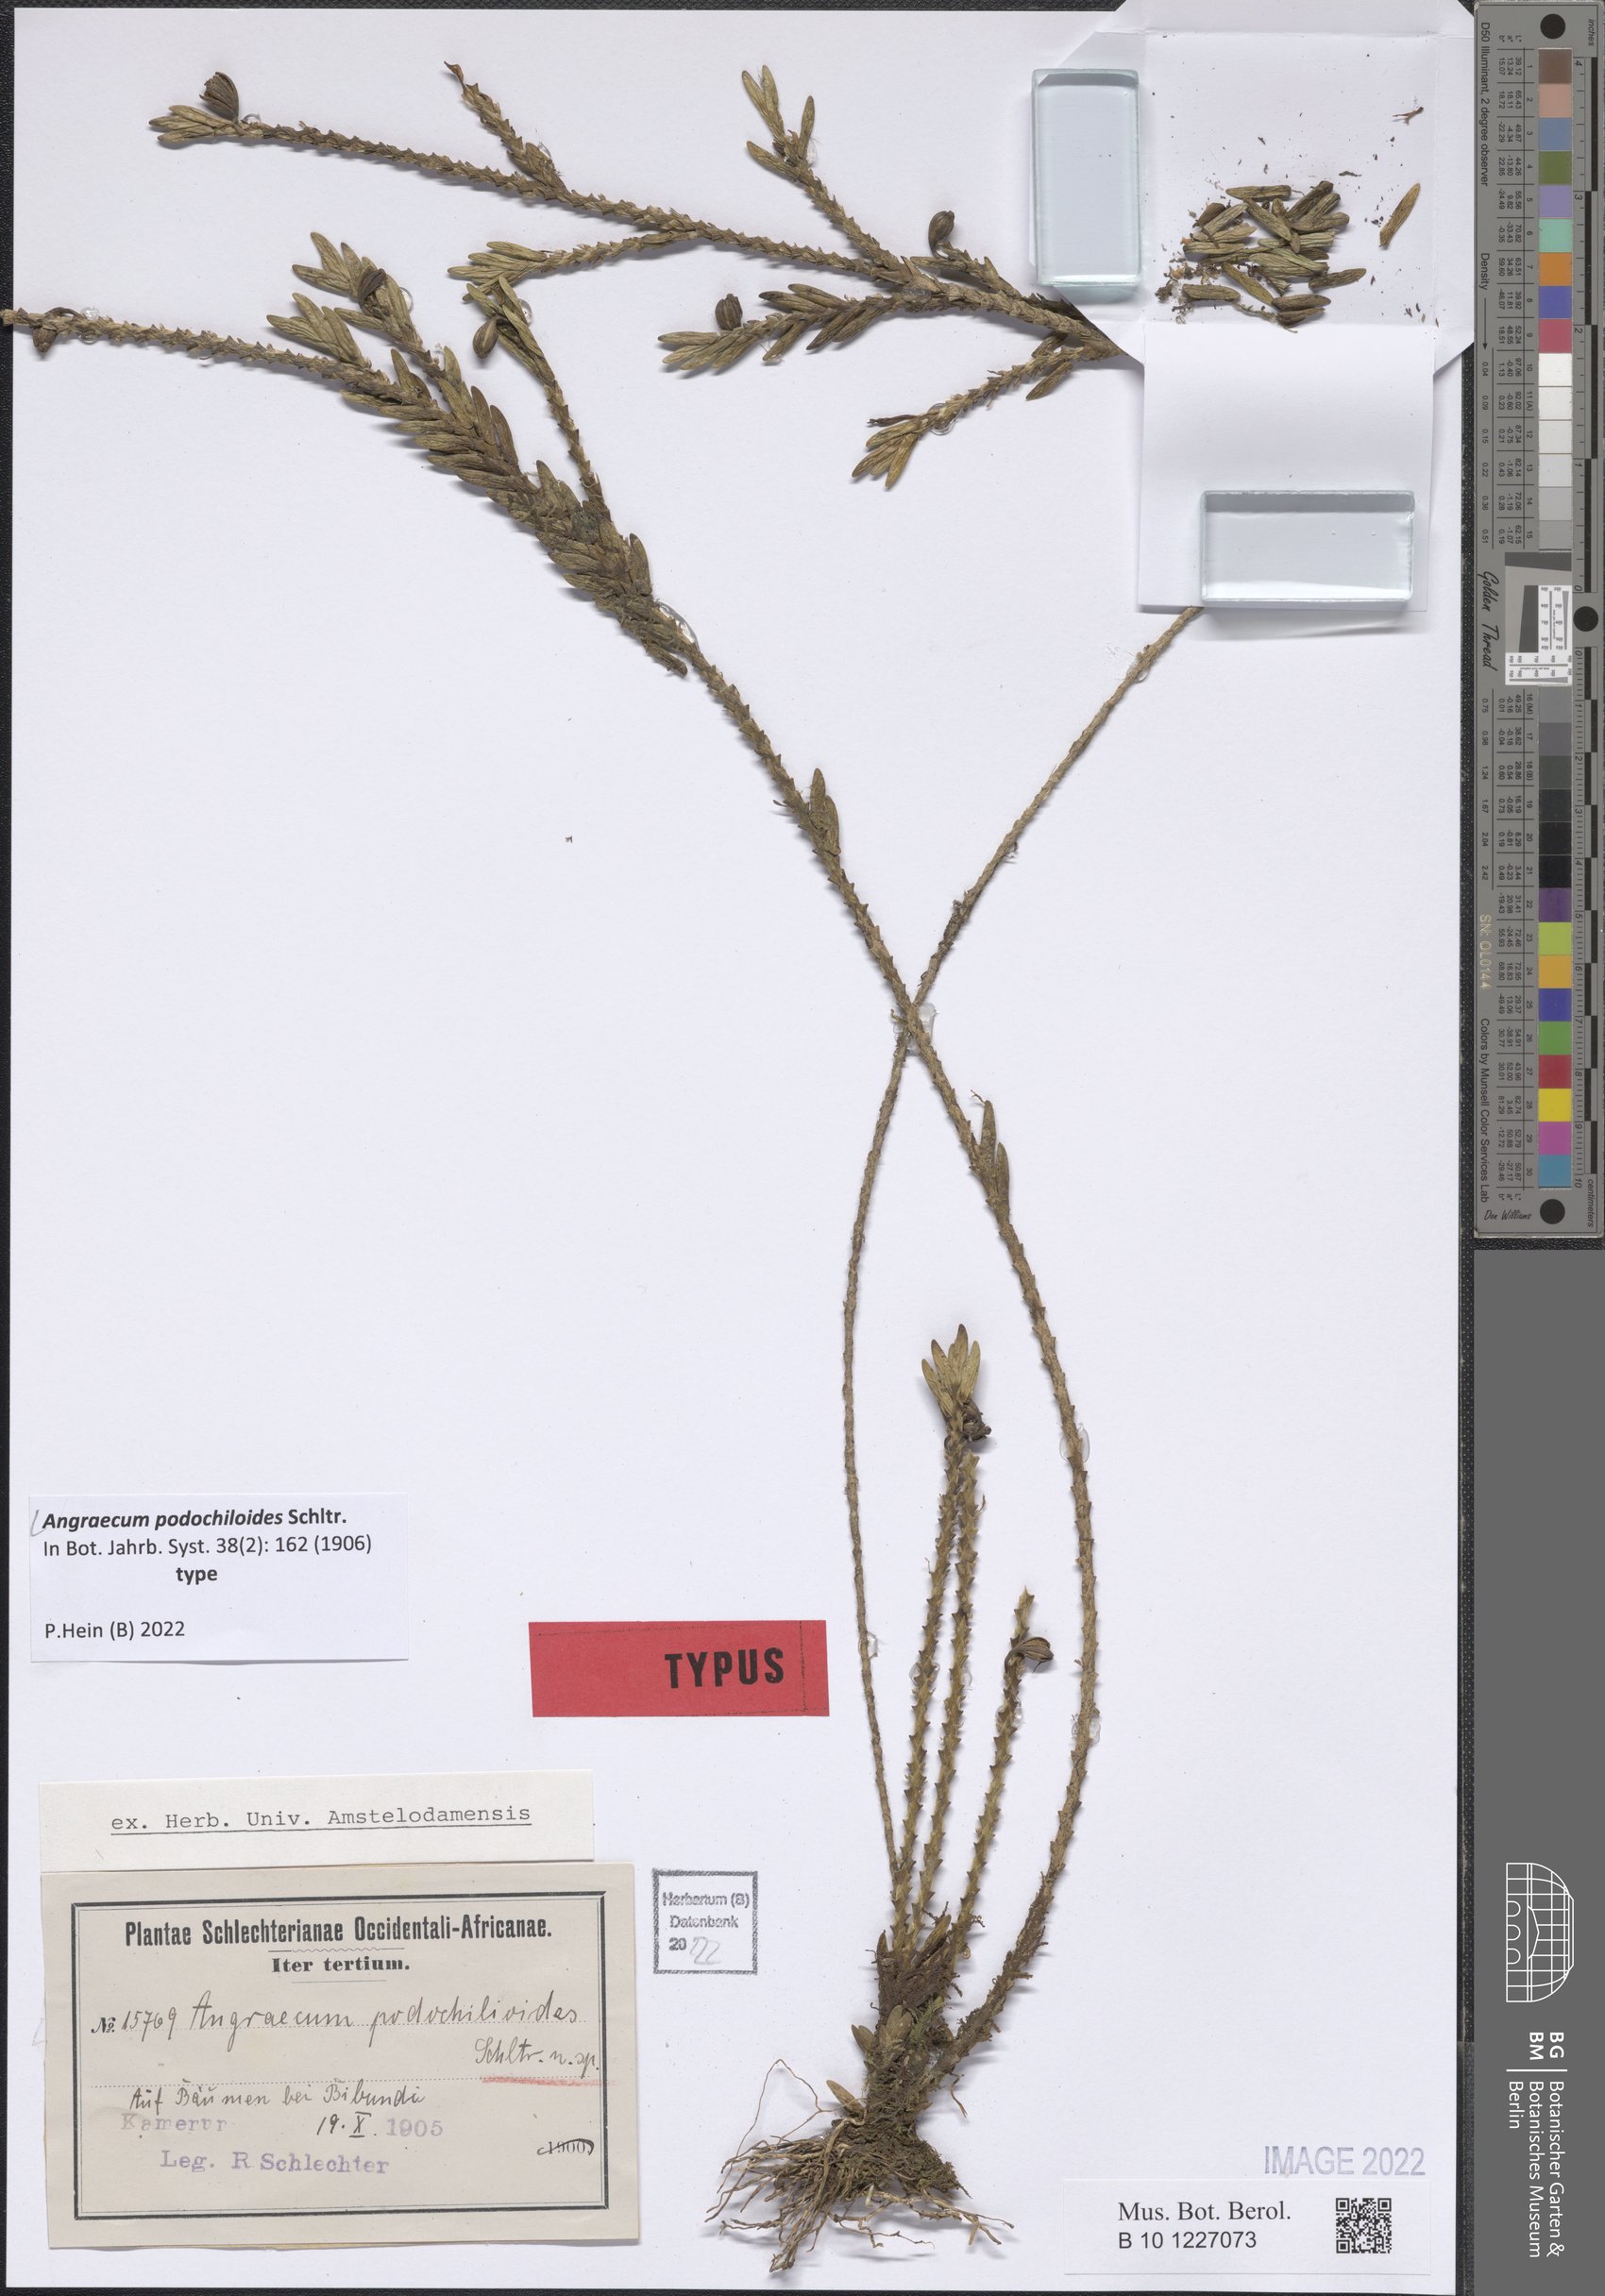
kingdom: Plantae
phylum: Tracheophyta
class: Liliopsida
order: Asparagales
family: Orchidaceae
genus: Angraecum
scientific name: Angraecum podochiloides
